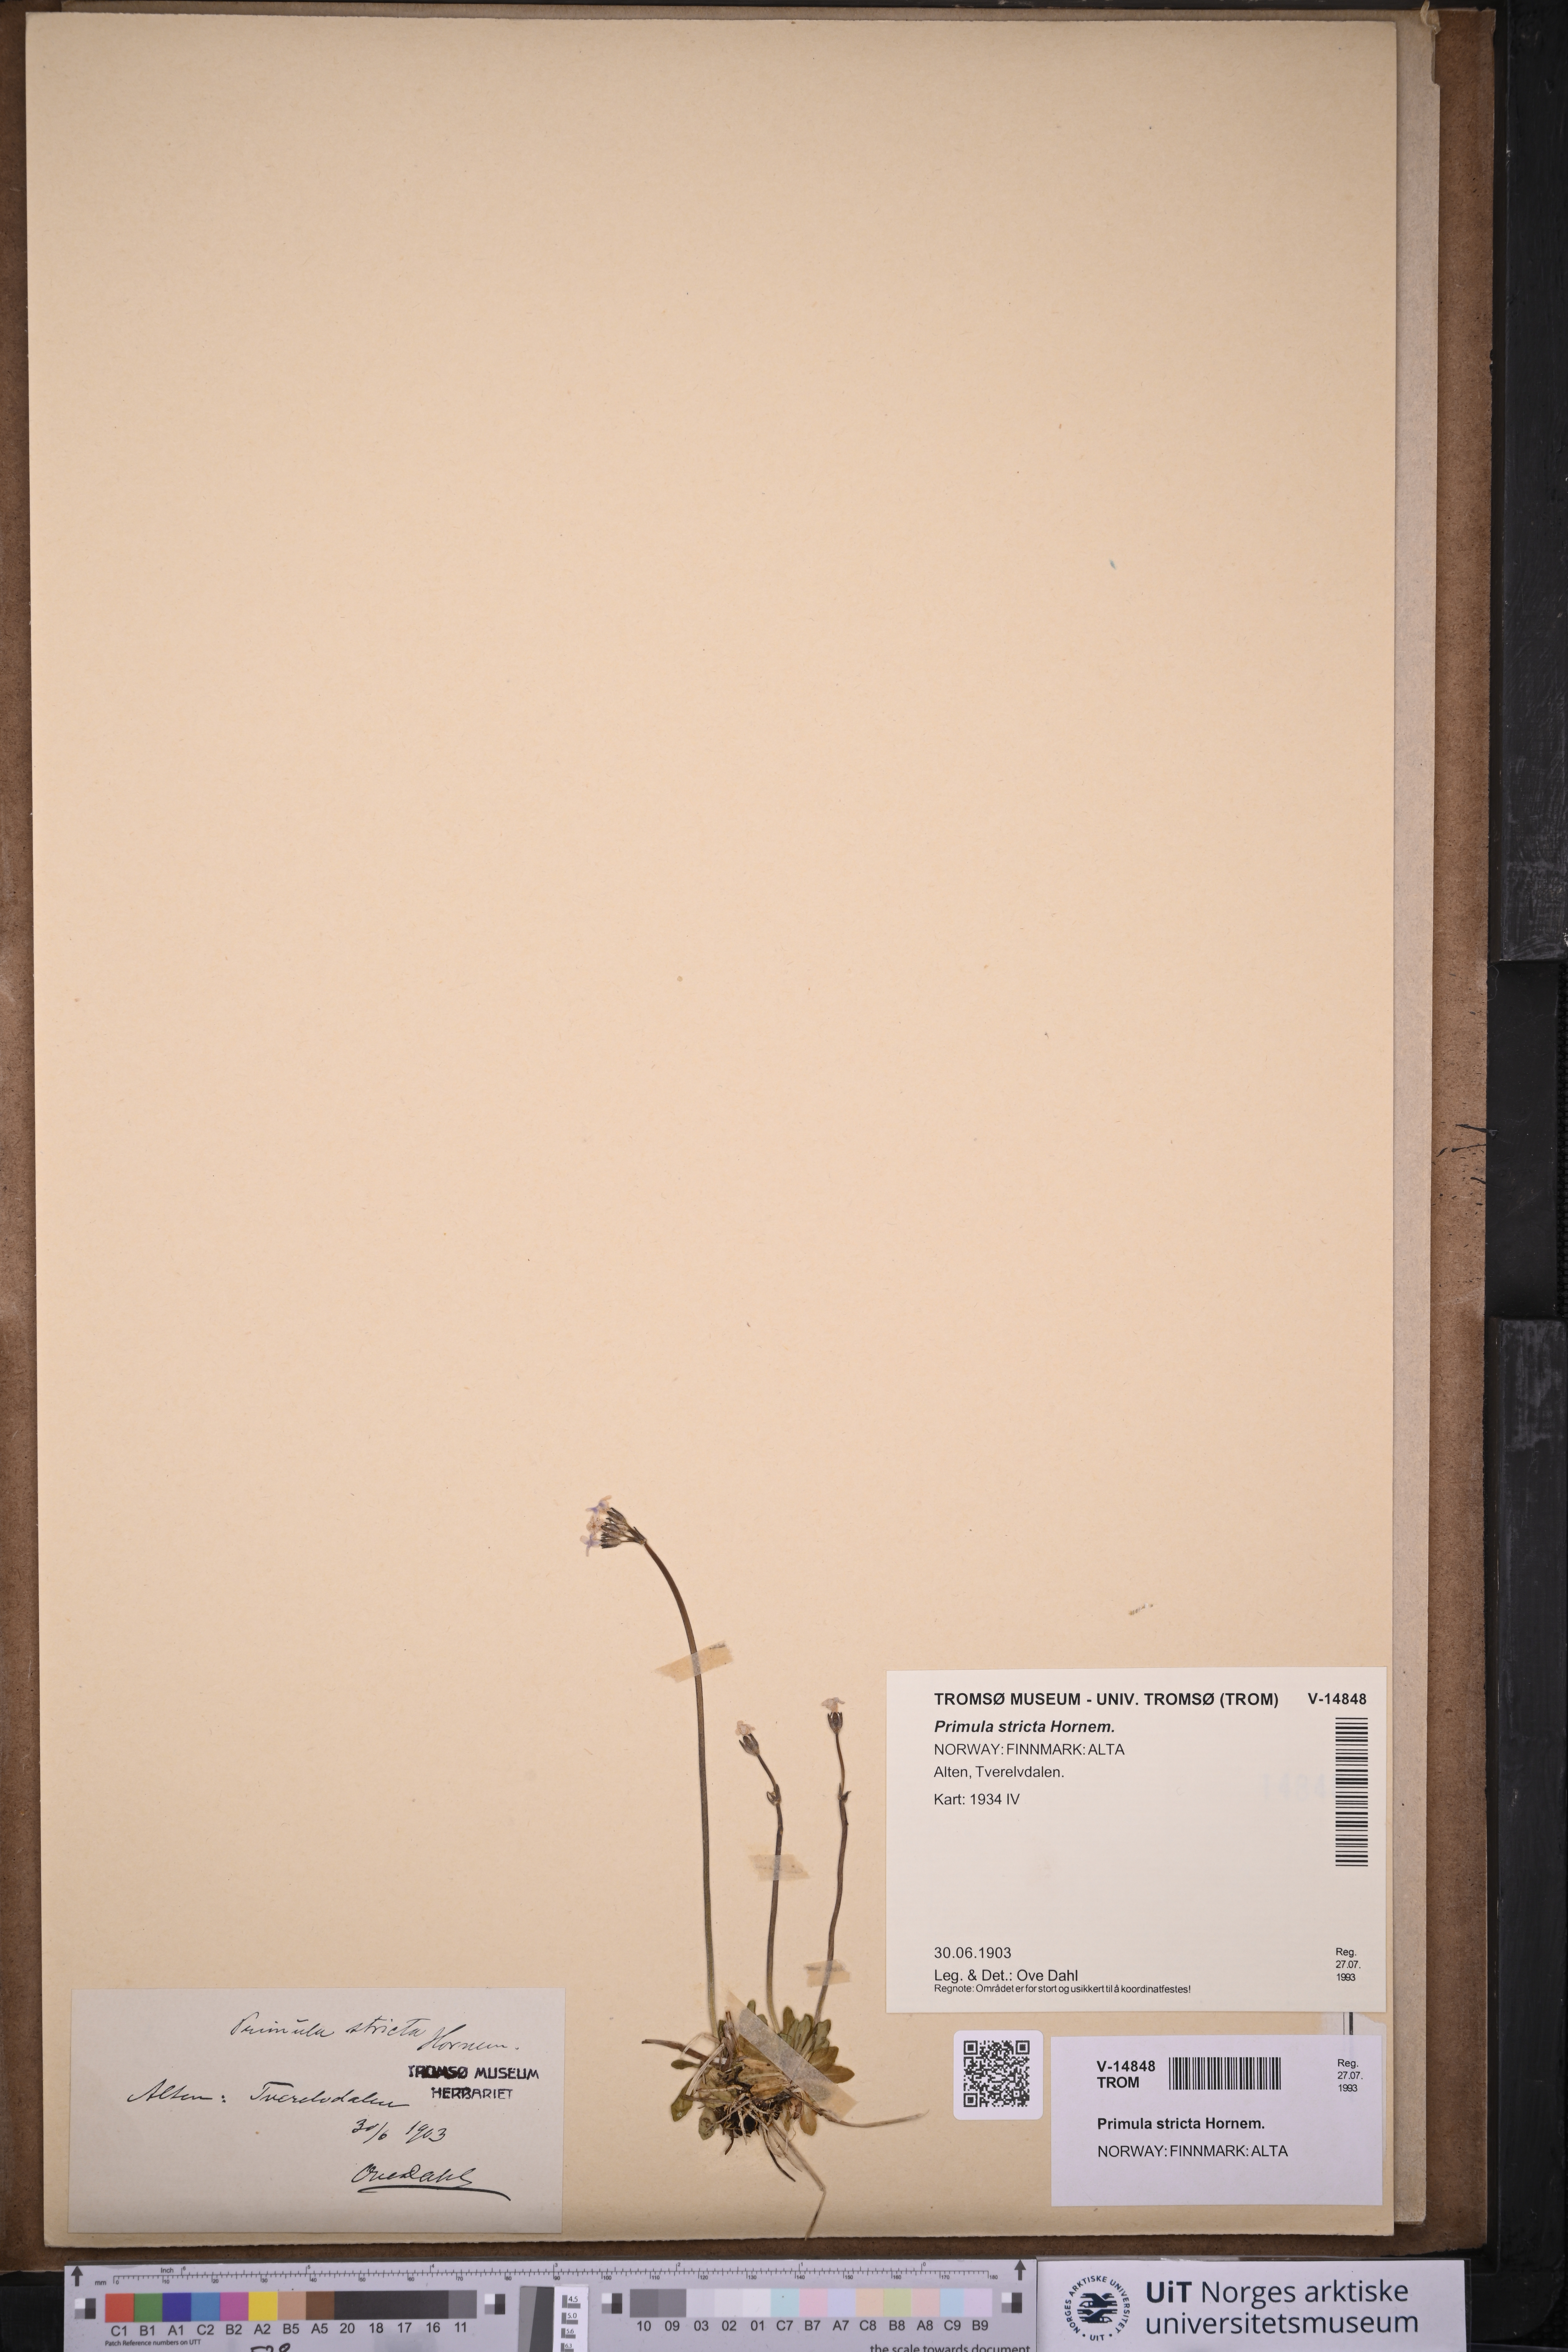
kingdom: Plantae
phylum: Tracheophyta
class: Magnoliopsida
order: Ericales
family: Primulaceae
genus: Primula
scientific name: Primula stricta
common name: Coastal primrose
